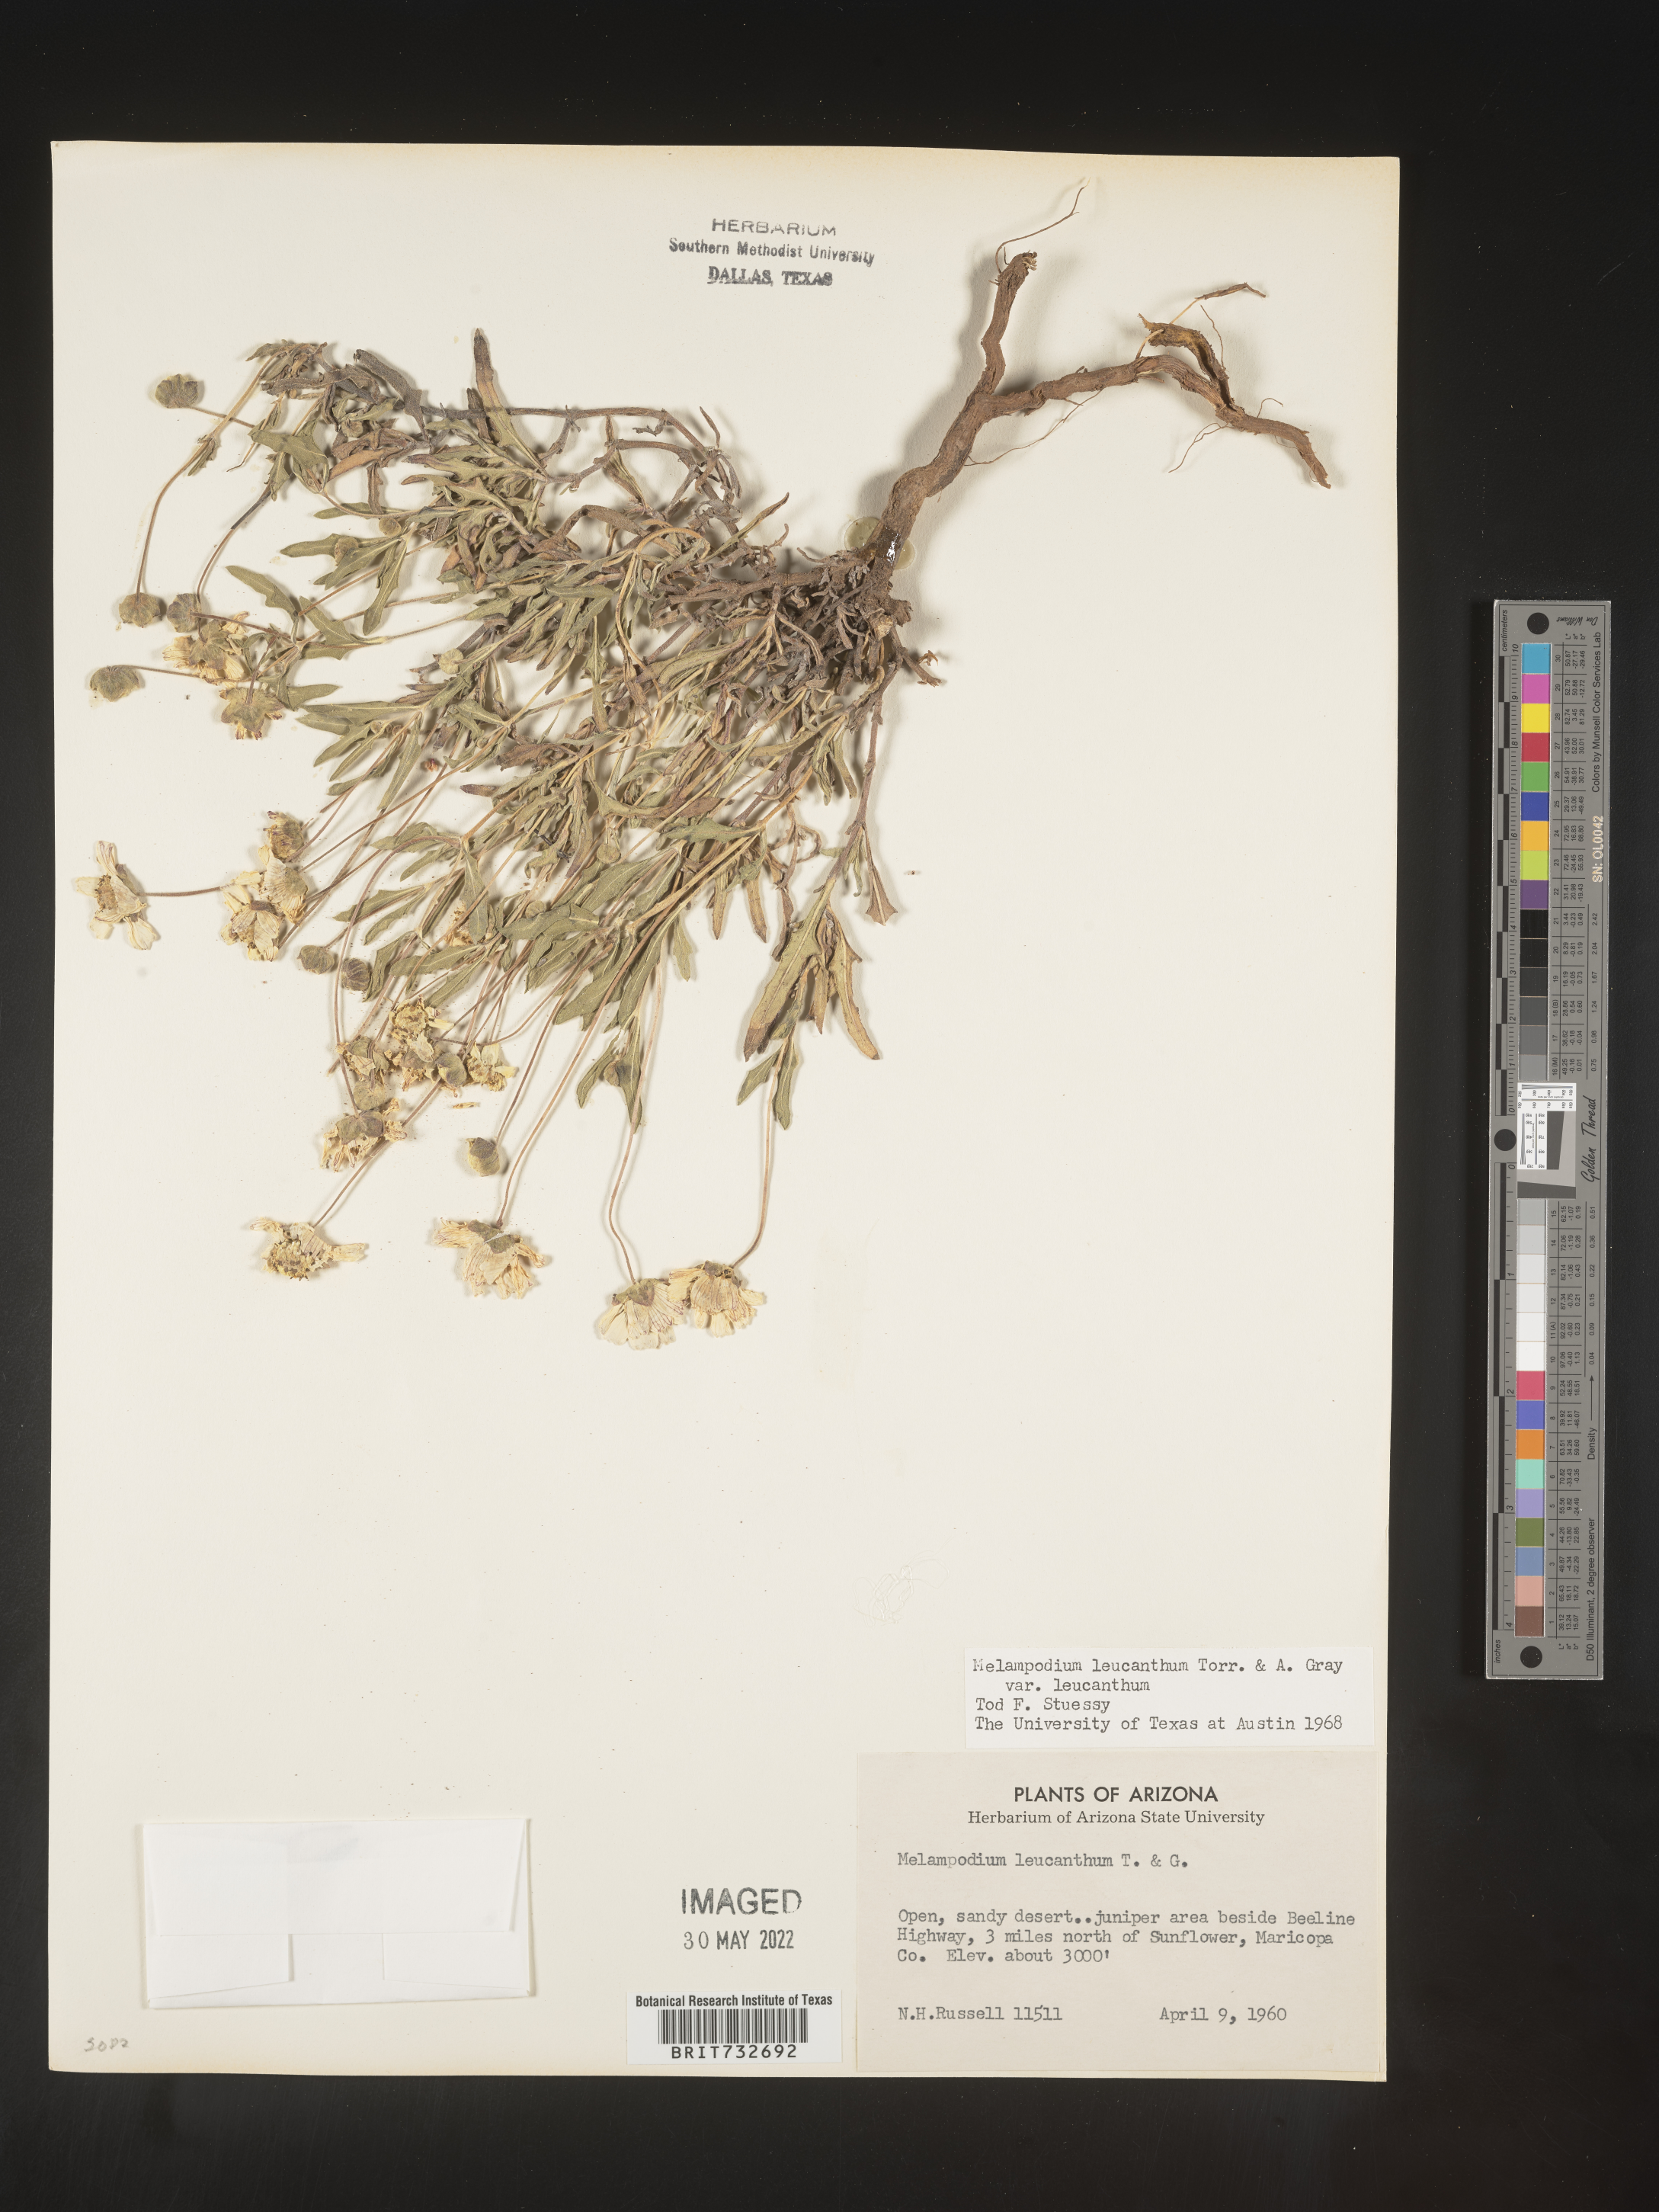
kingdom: Plantae
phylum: Tracheophyta
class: Magnoliopsida
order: Asterales
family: Asteraceae
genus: Melampodium
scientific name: Melampodium leucanthum
